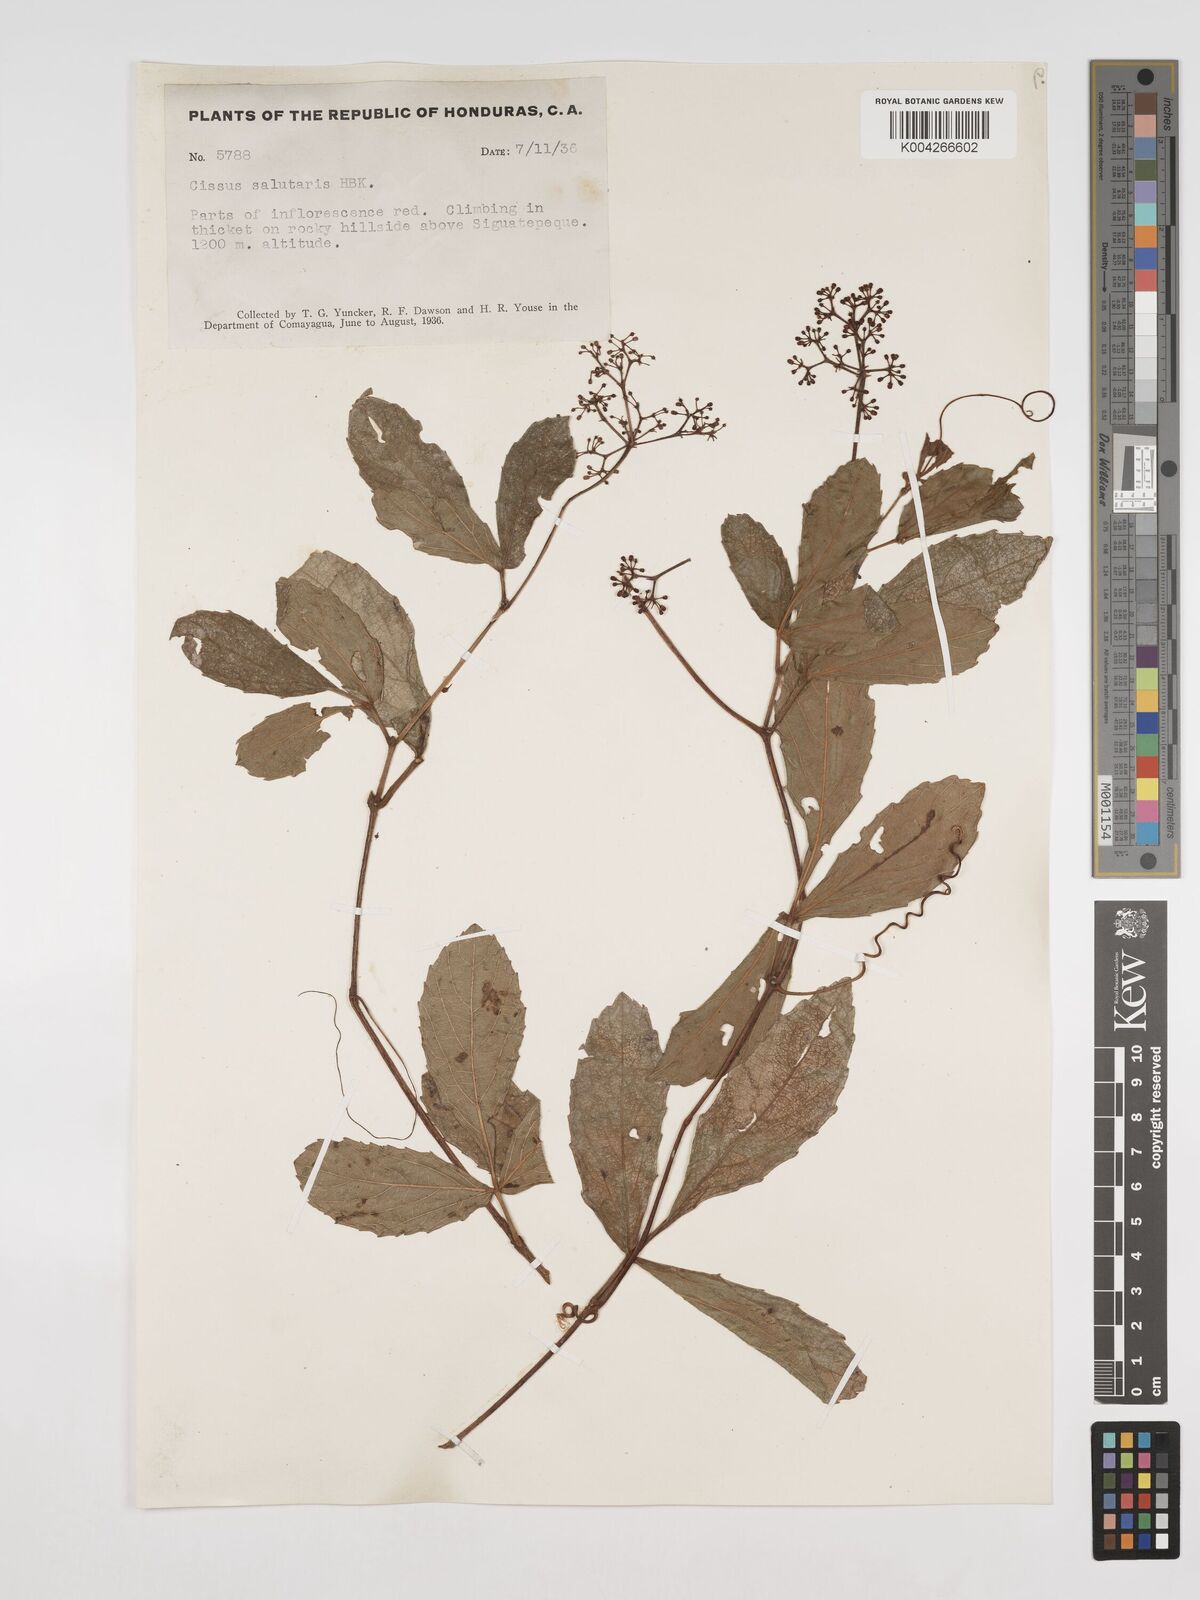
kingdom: Plantae
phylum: Tracheophyta
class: Magnoliopsida
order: Vitales
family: Vitaceae
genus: Cissus
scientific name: Cissus erosa
